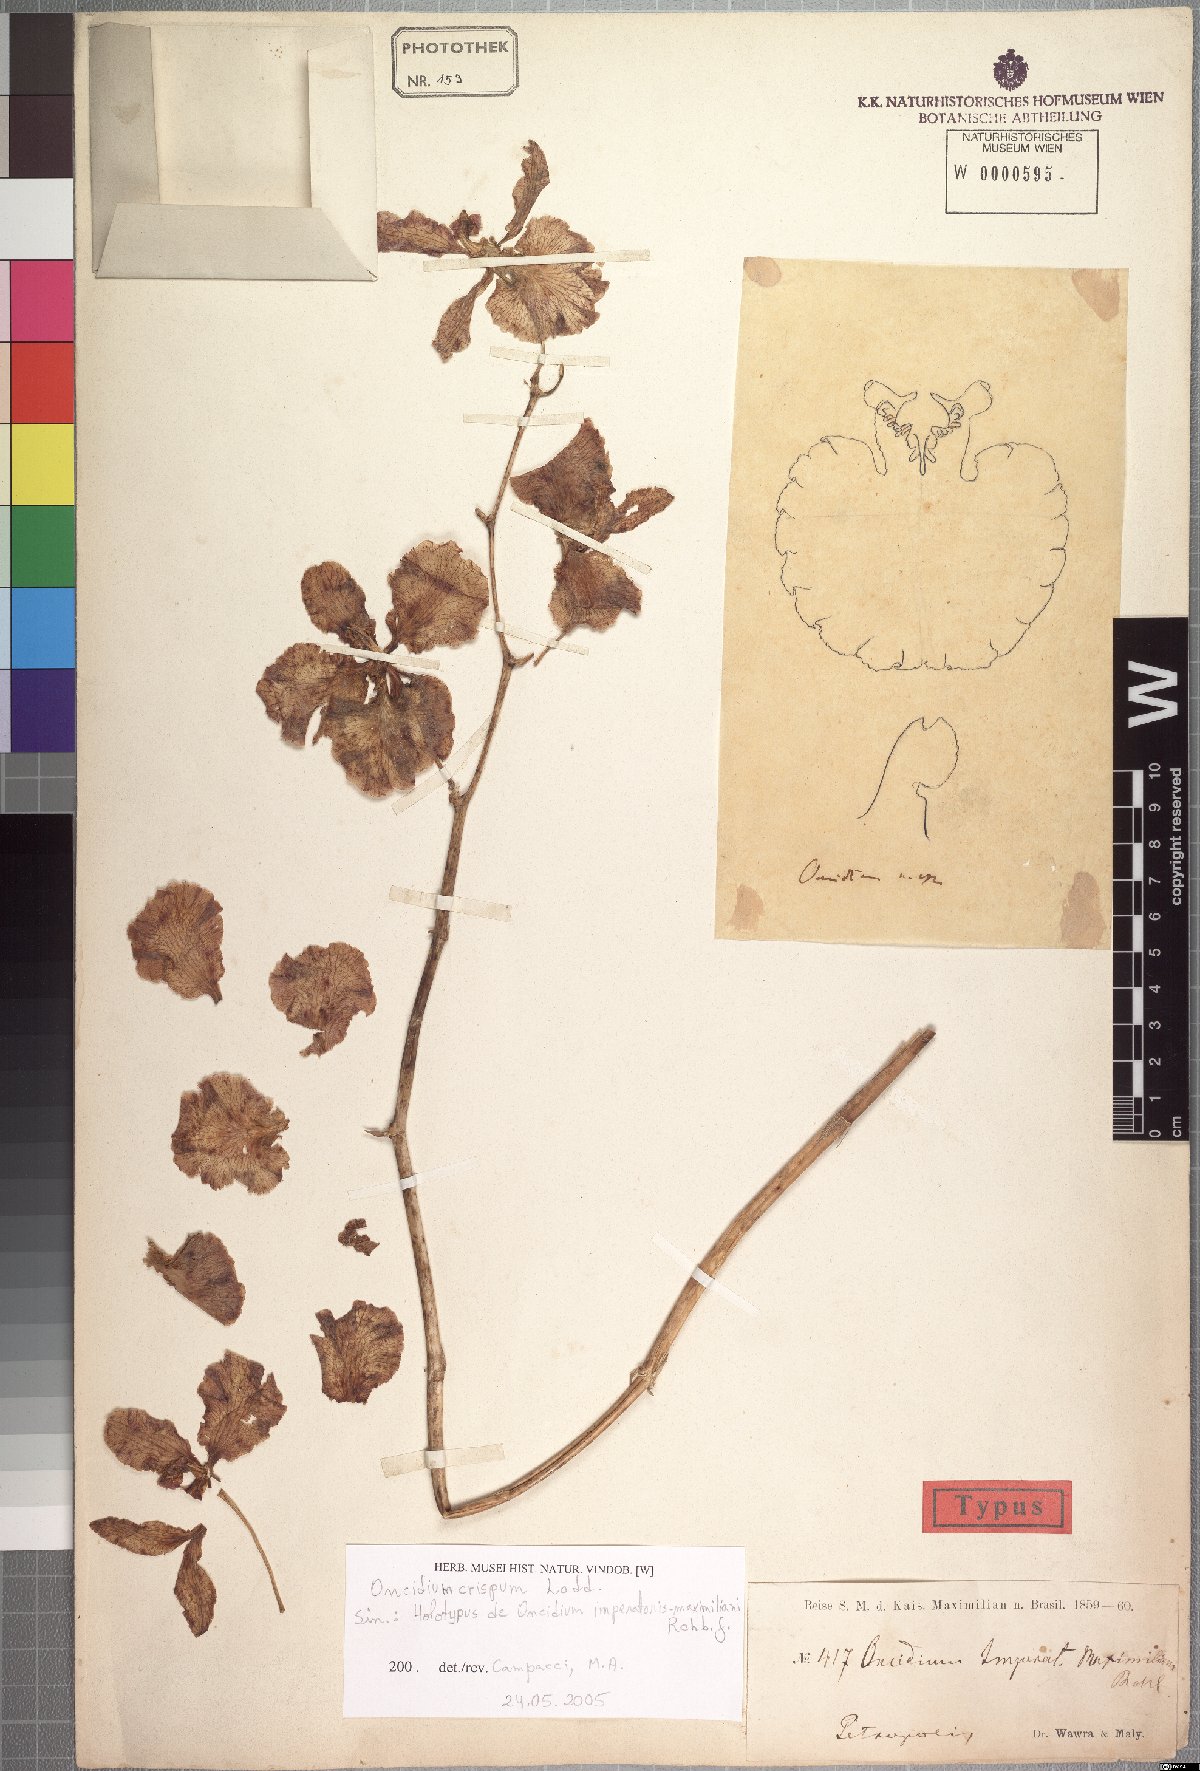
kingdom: Plantae
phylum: Tracheophyta
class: Liliopsida
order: Asparagales
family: Orchidaceae
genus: Gomesa
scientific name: Gomesa imperatoris-maximiliani
